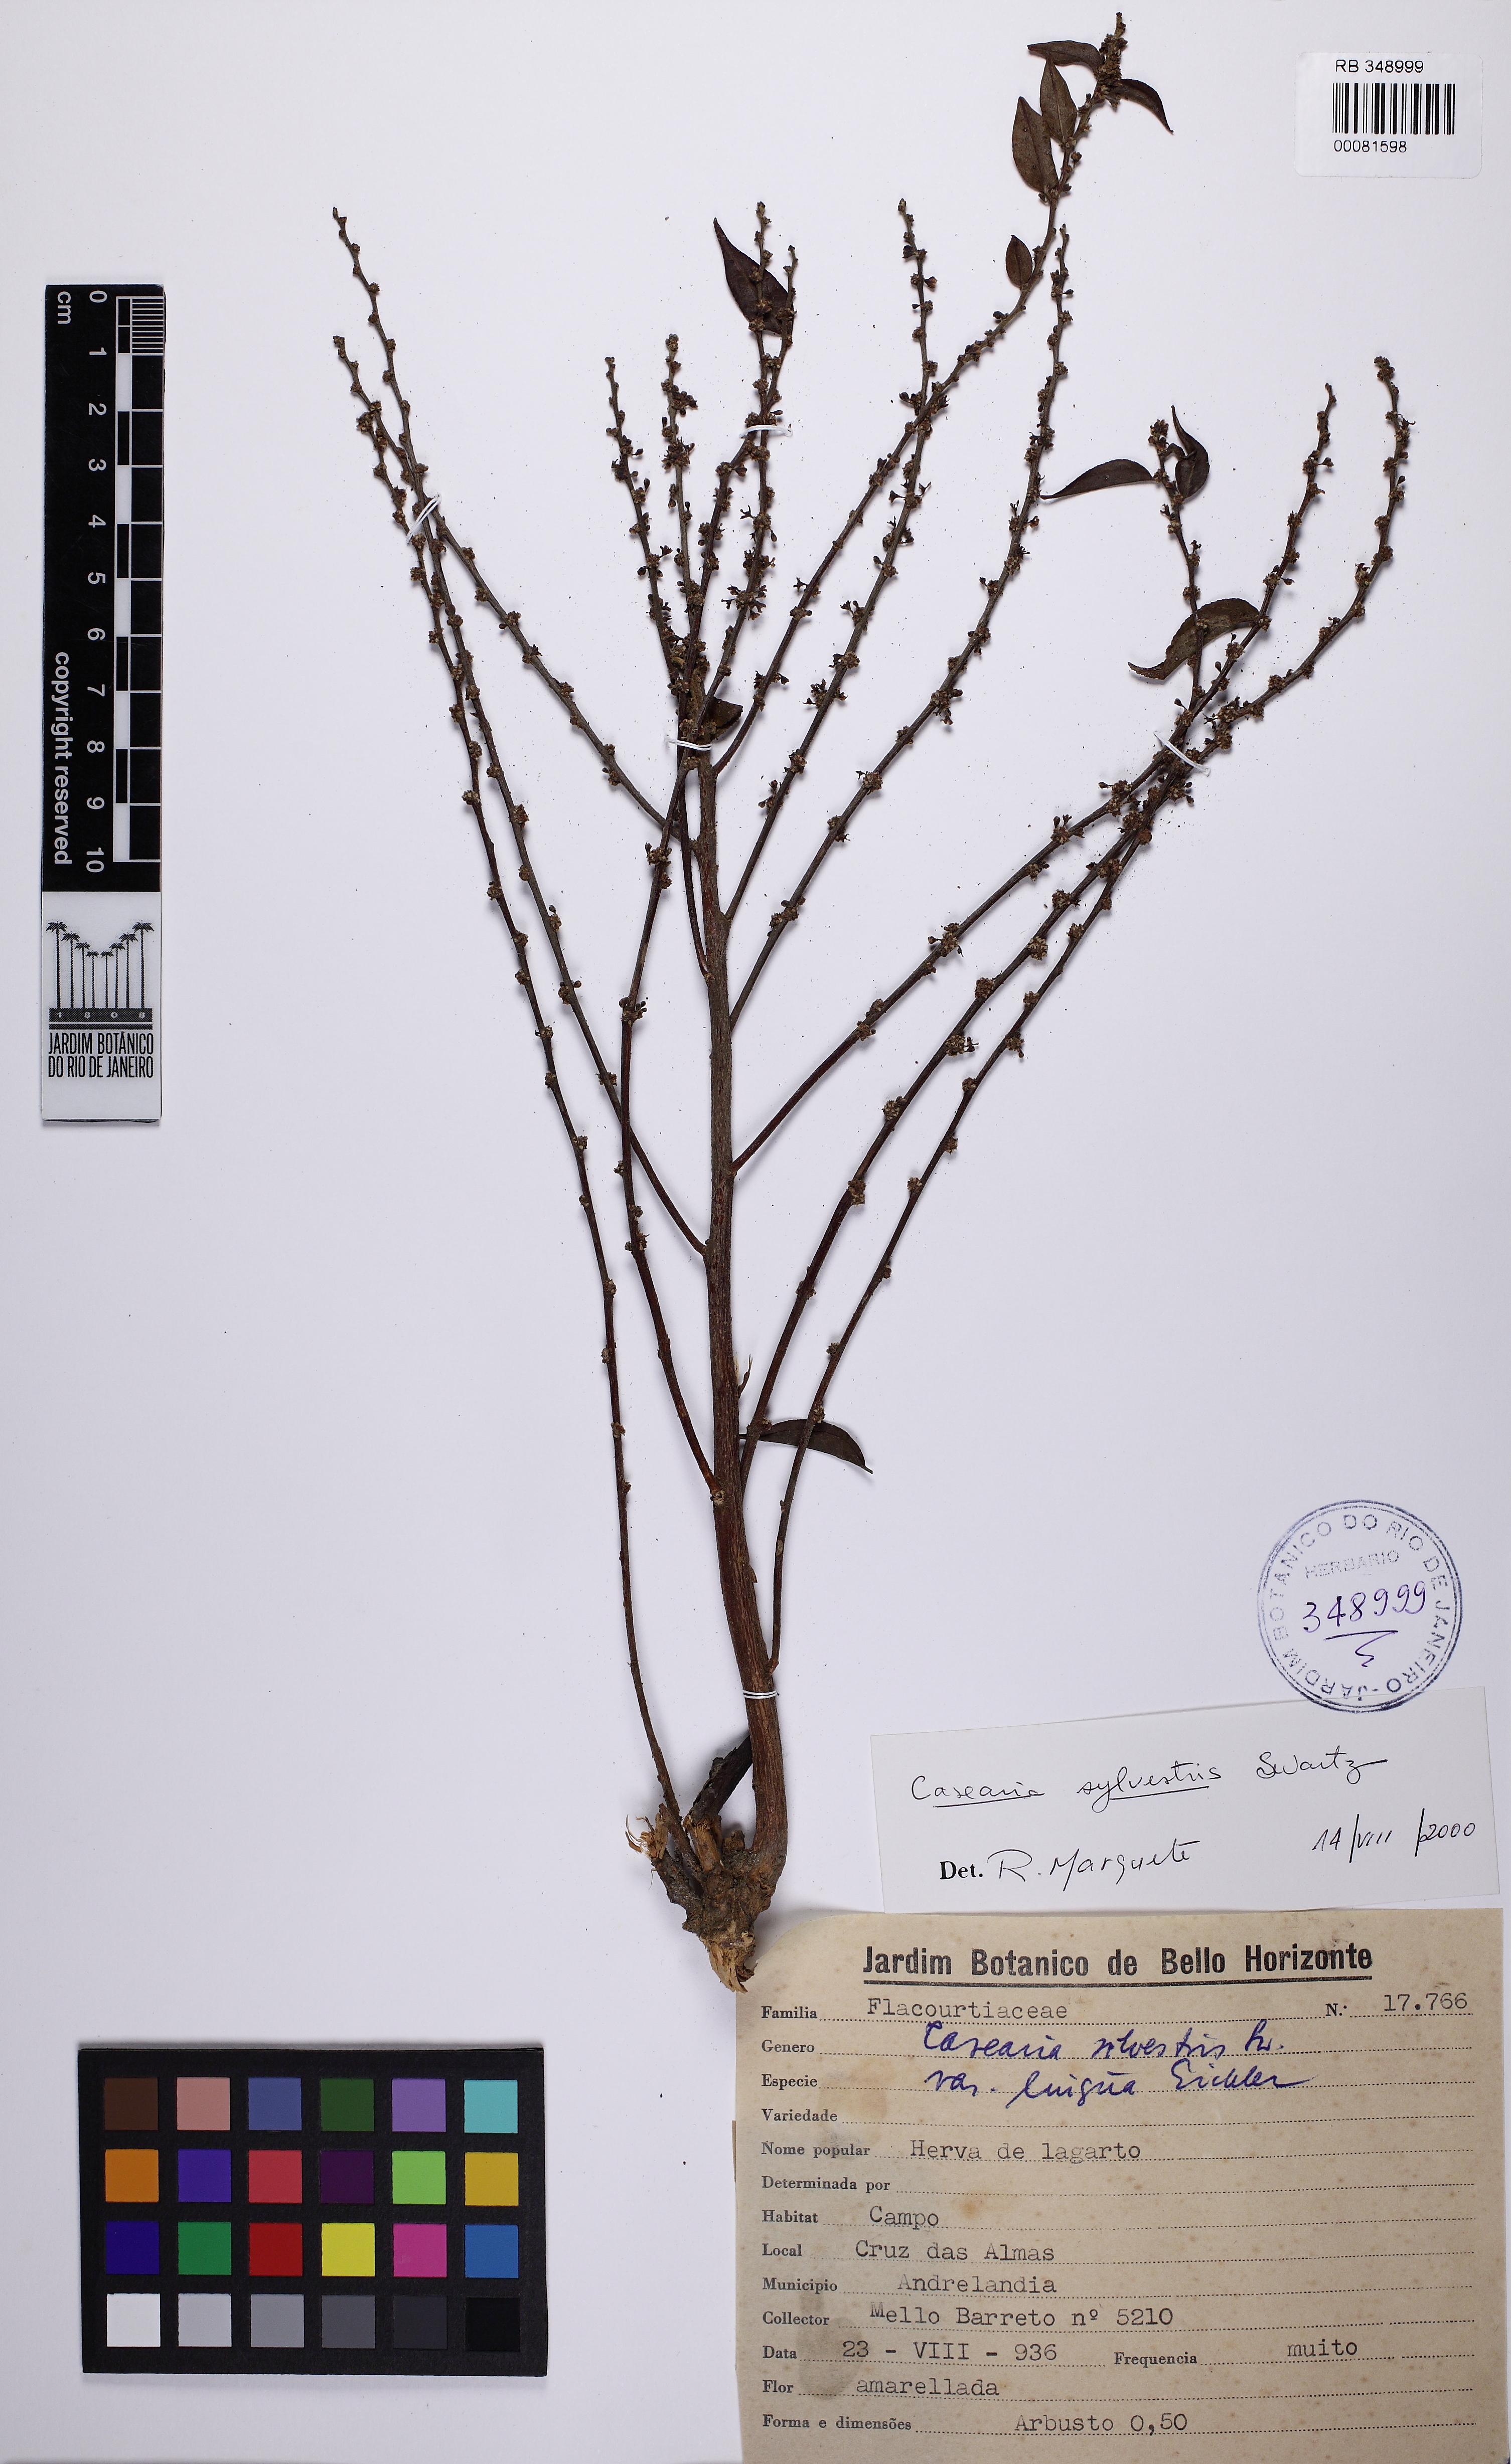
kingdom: Plantae
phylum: Tracheophyta
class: Magnoliopsida
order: Malpighiales
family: Salicaceae
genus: Casearia
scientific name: Casearia sylvestris
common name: Wild sage
